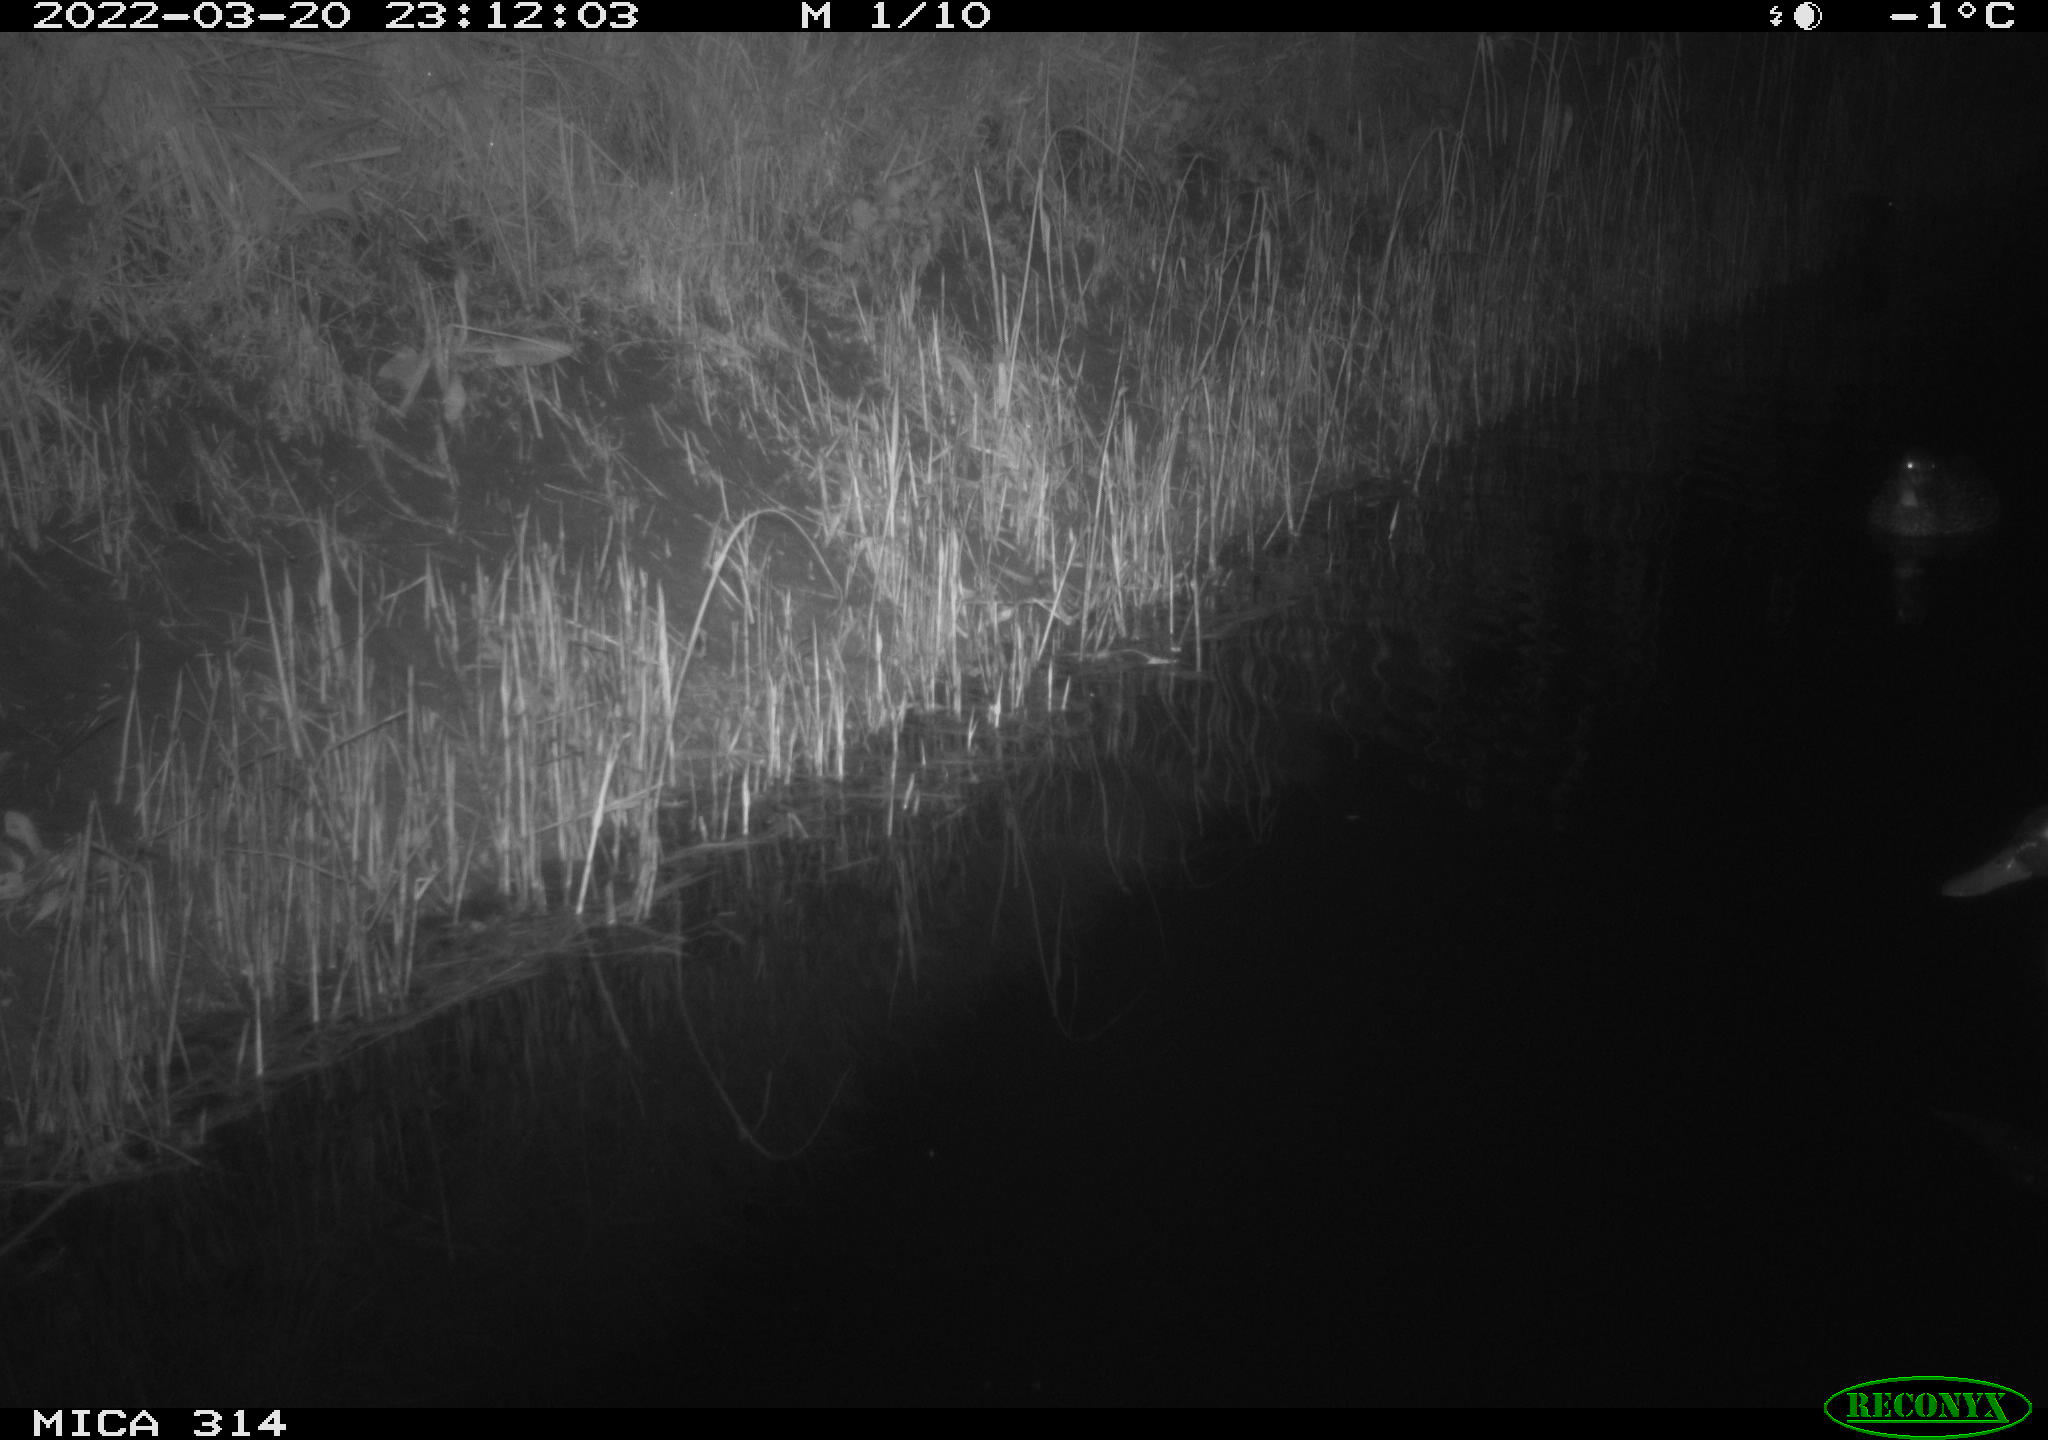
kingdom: Animalia
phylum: Chordata
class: Aves
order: Anseriformes
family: Anatidae
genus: Anas
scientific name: Anas platyrhynchos
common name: Mallard
